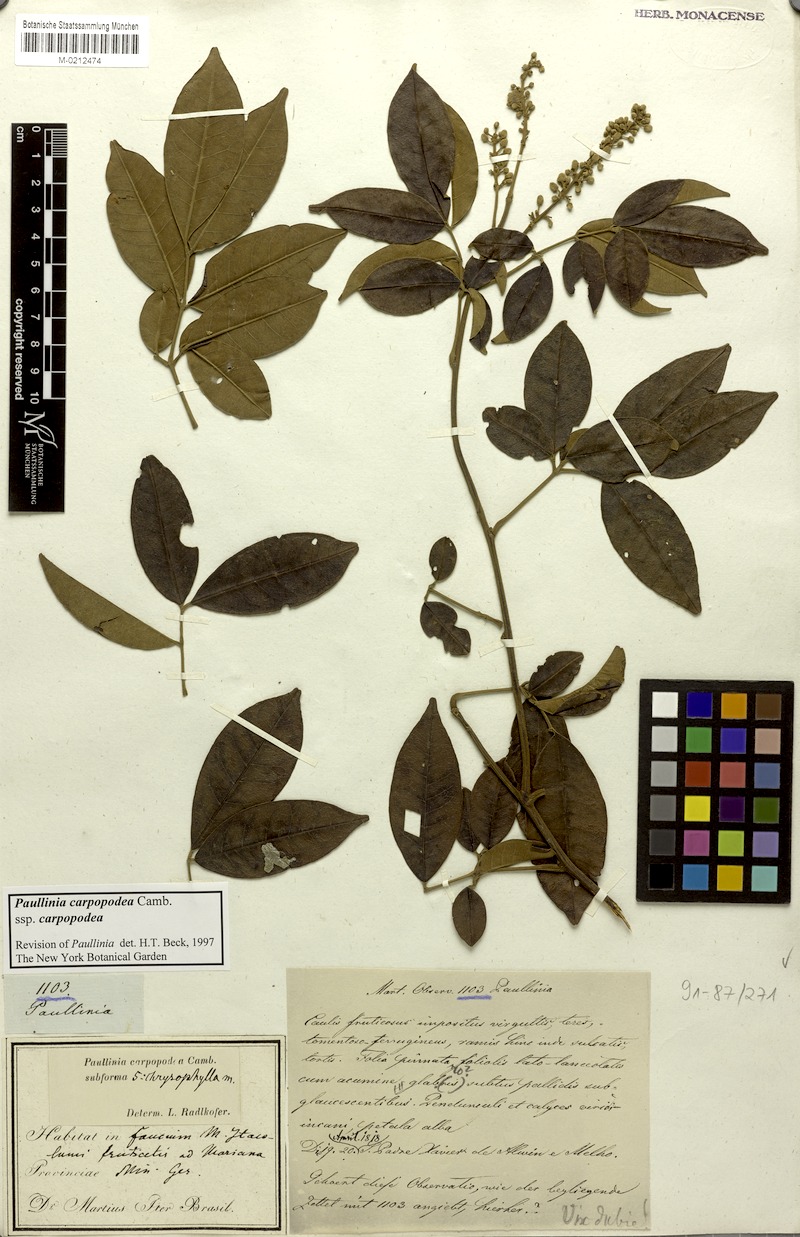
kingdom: Plantae
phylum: Tracheophyta
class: Magnoliopsida
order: Sapindales
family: Sapindaceae
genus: Paullinia
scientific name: Paullinia carpopoda
